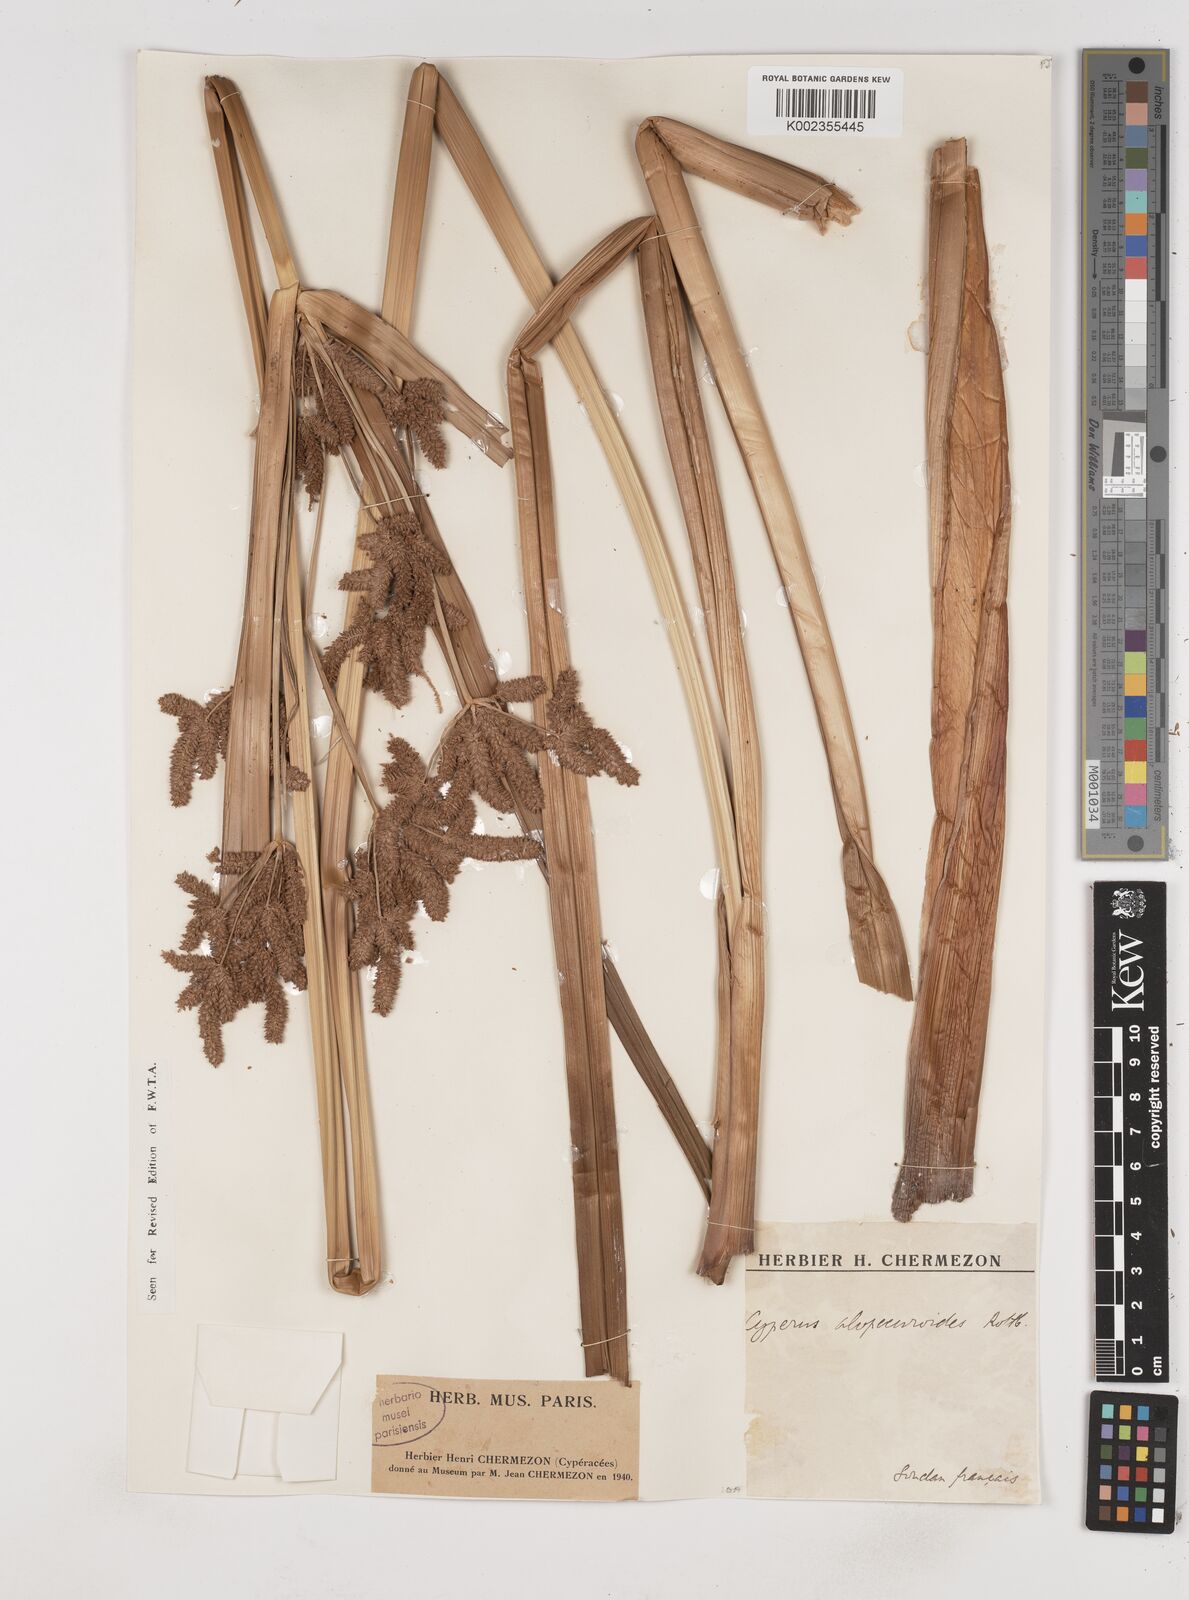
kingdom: Plantae
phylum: Tracheophyta
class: Liliopsida
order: Poales
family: Cyperaceae
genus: Cyperus
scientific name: Cyperus alopecuroides
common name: Foxtail flatsedge
